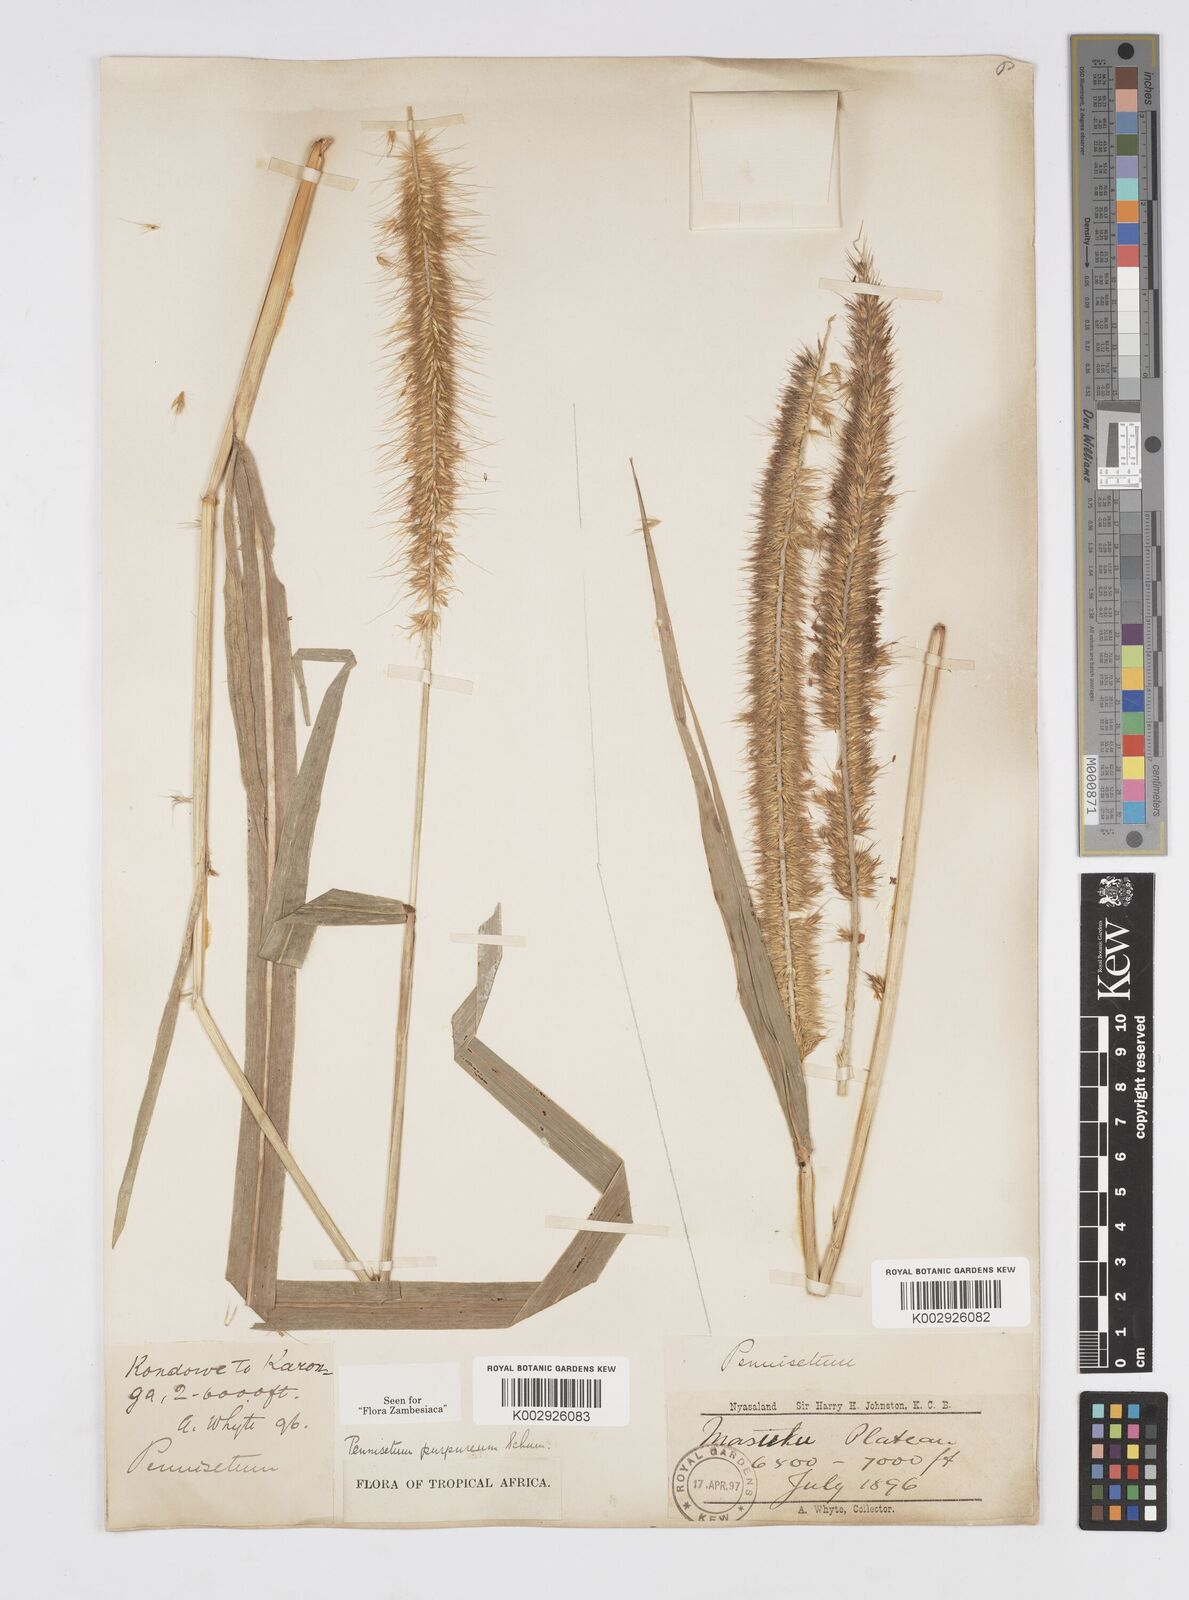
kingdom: Plantae
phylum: Tracheophyta
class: Liliopsida
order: Poales
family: Poaceae
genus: Cenchrus
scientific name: Cenchrus purpureus
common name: Elephant grass
